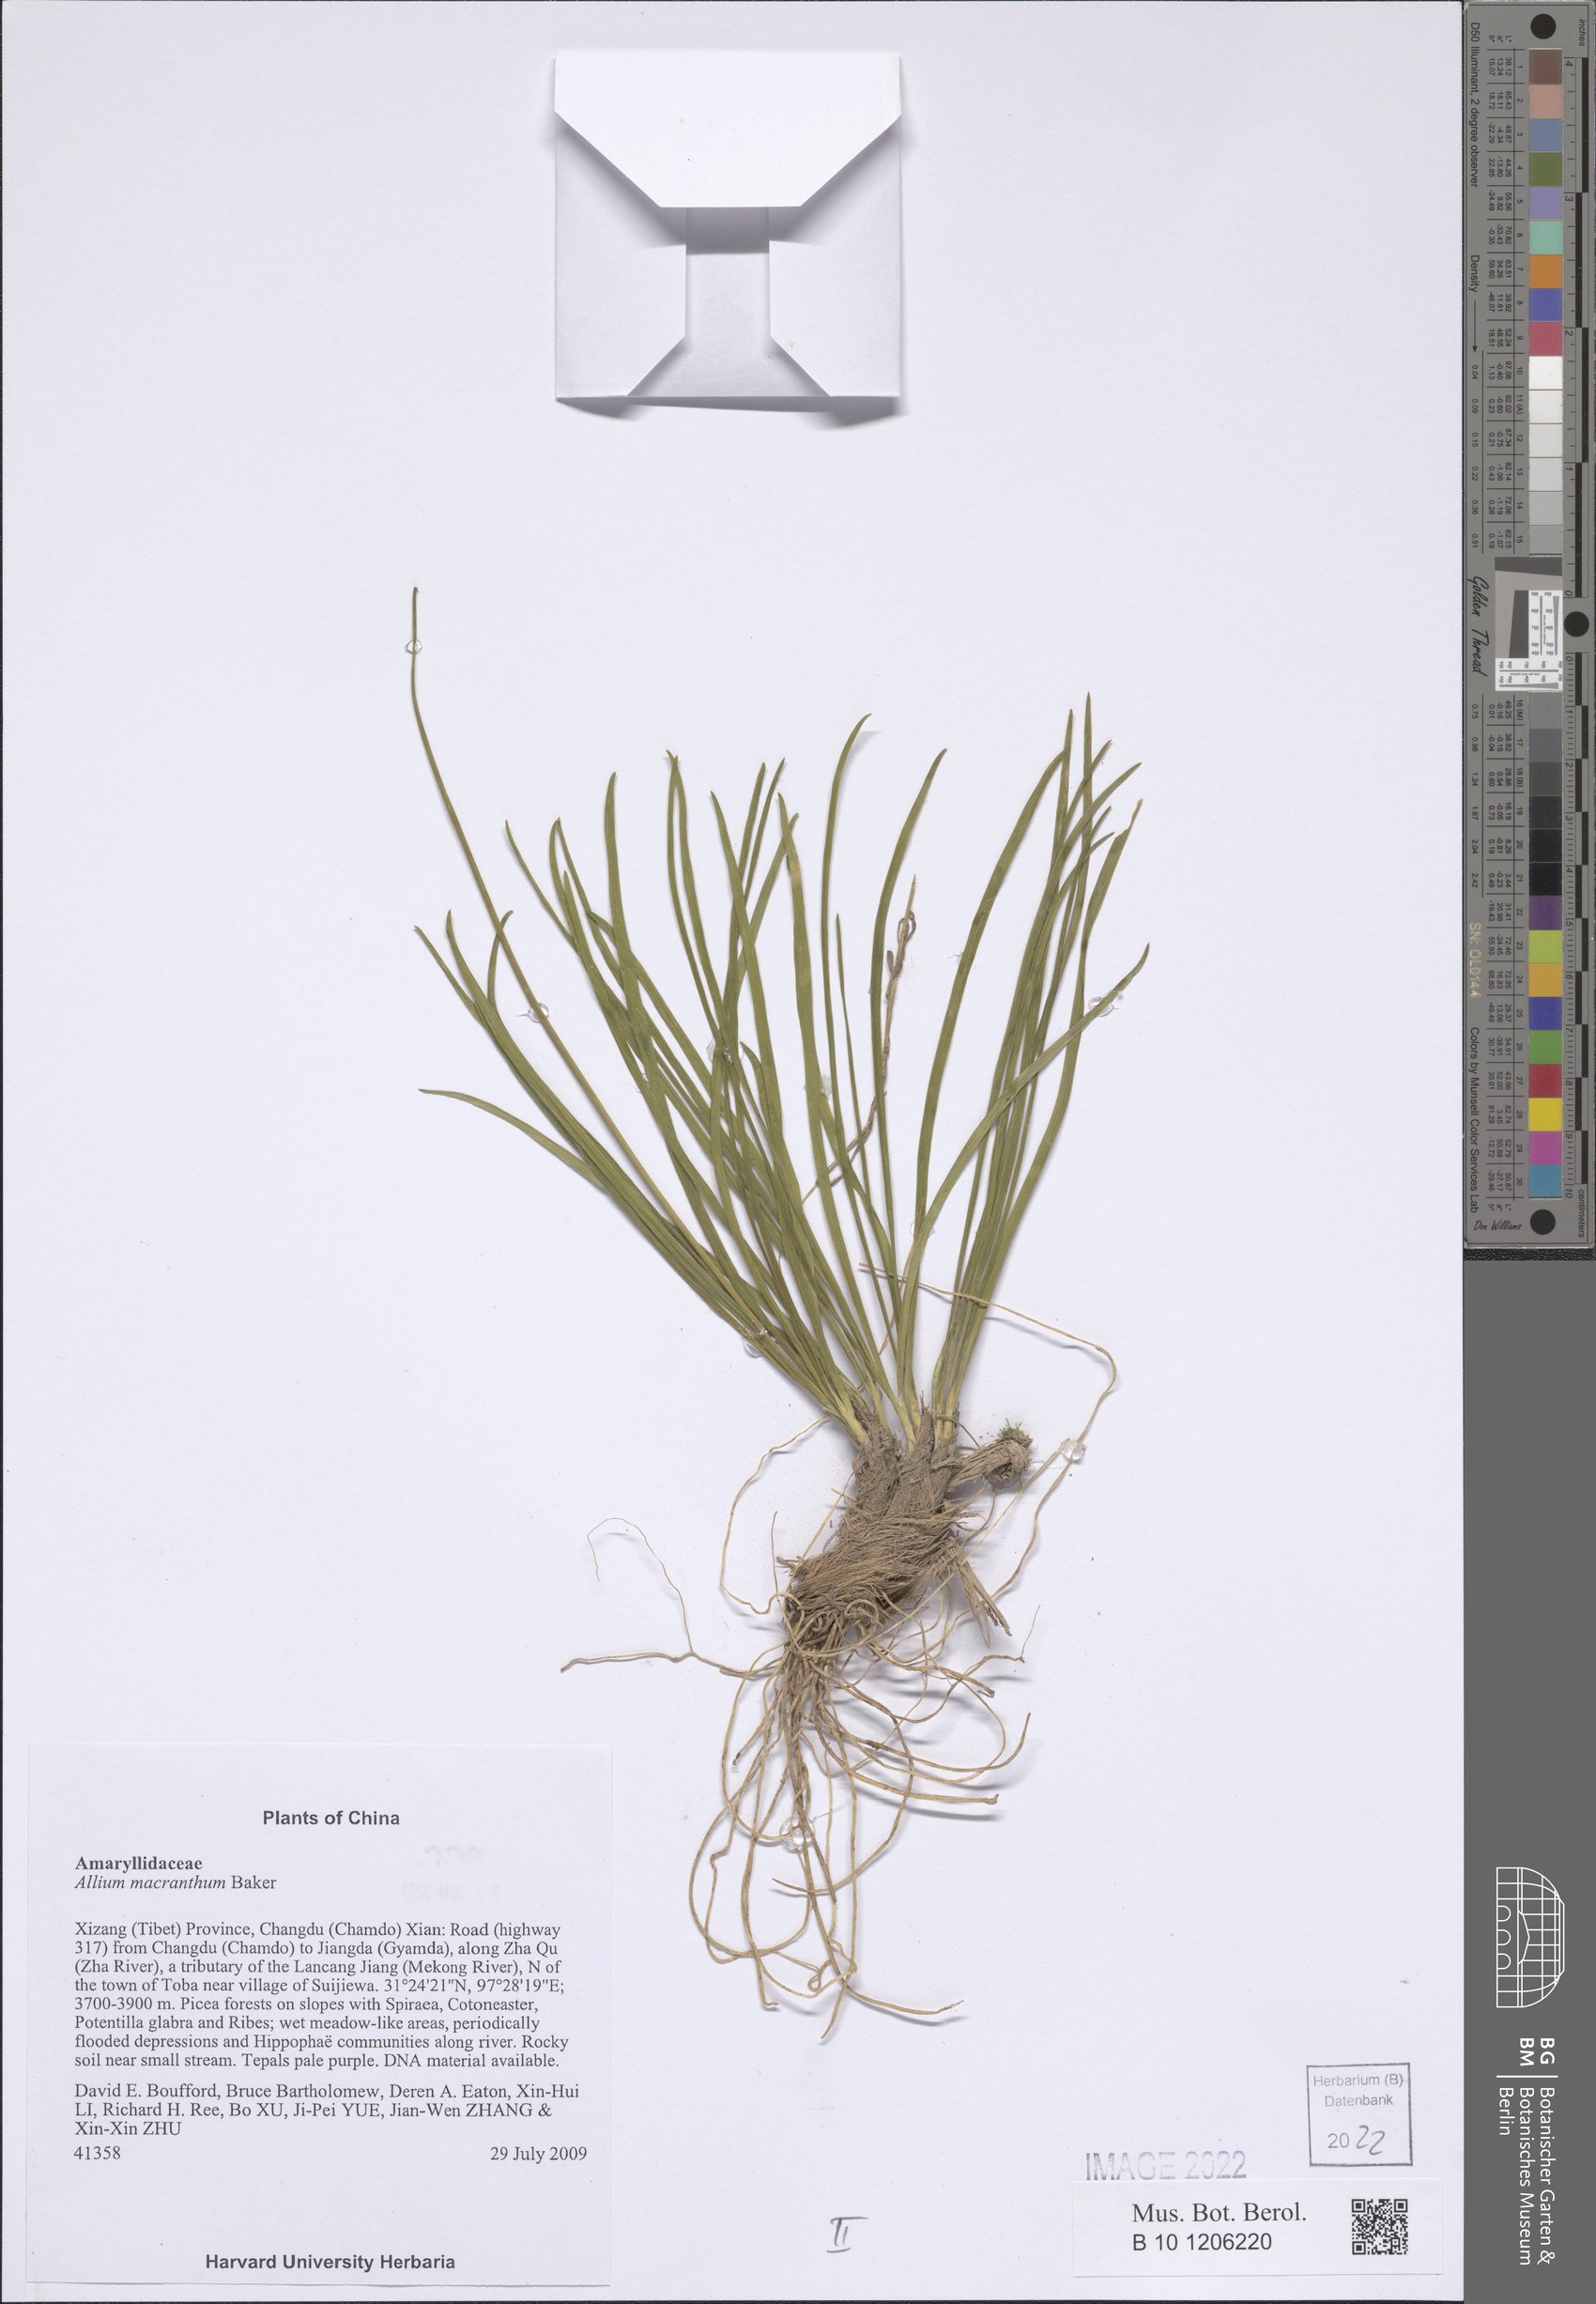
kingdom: Plantae
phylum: Tracheophyta
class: Liliopsida
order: Asparagales
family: Amaryllidaceae
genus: Allium
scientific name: Allium macranthum
